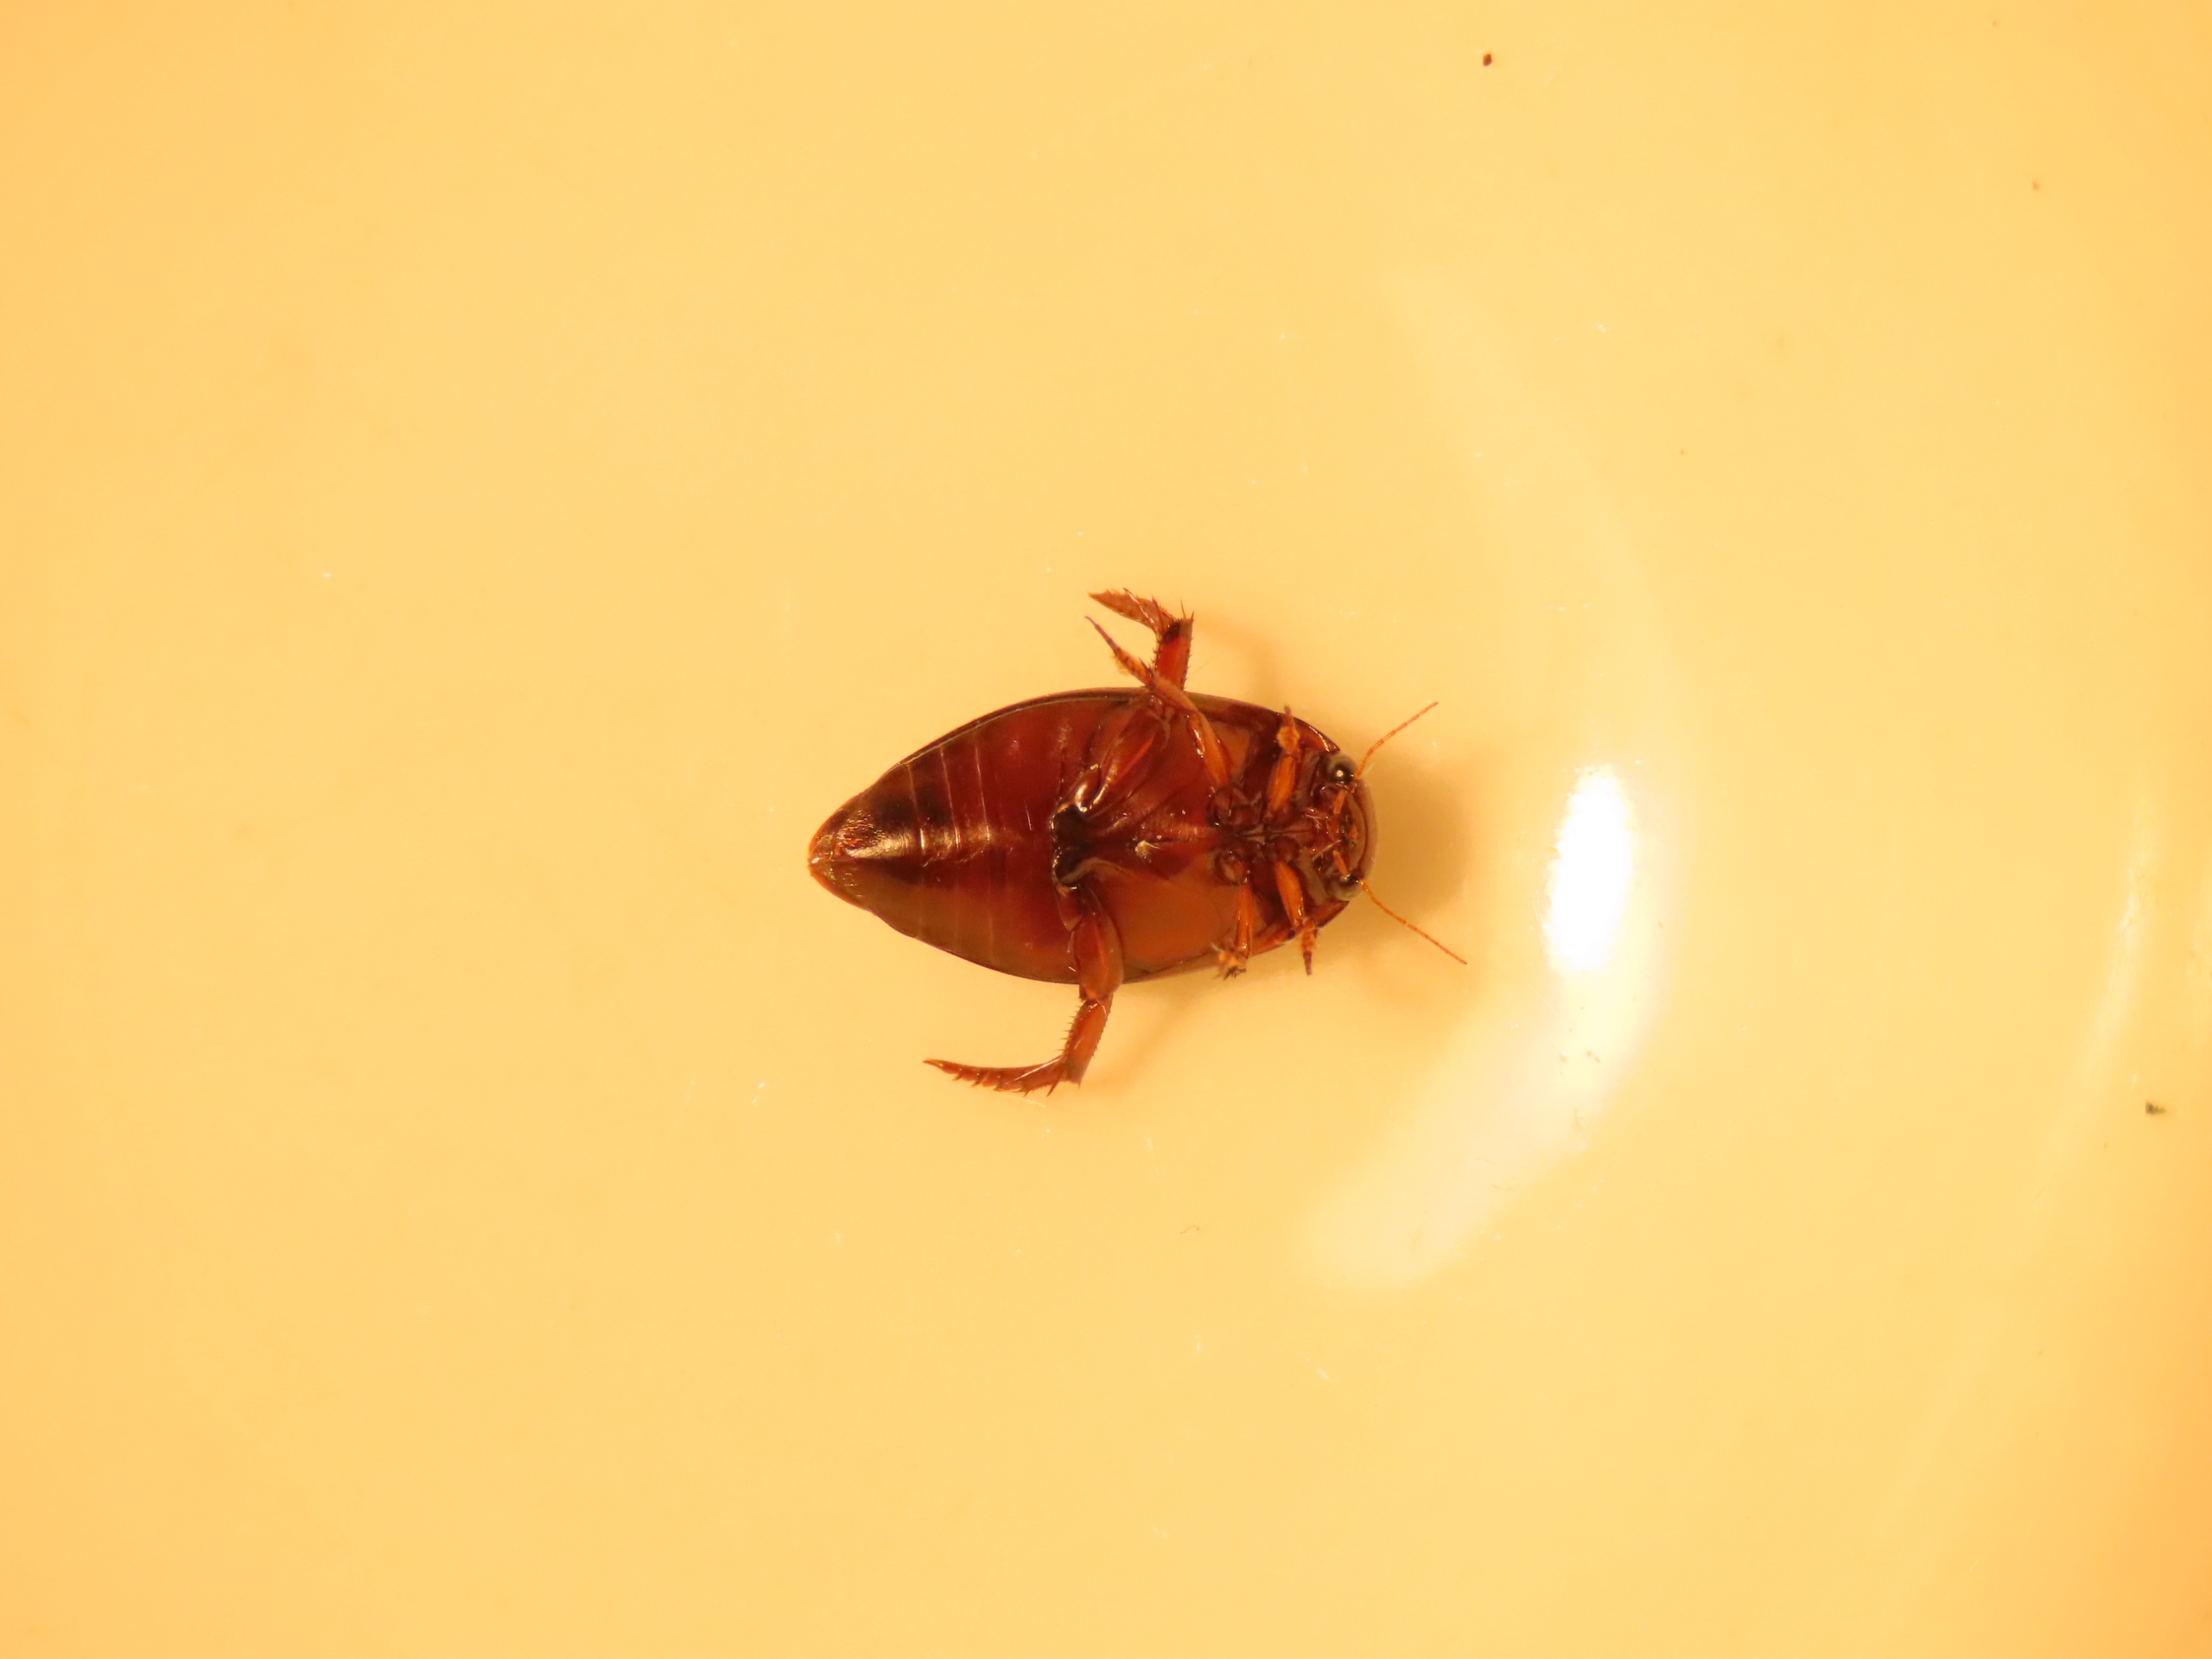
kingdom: Animalia
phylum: Arthropoda
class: Insecta
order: Coleoptera
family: Dytiscidae
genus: Ilybius
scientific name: Ilybius fenestratus
